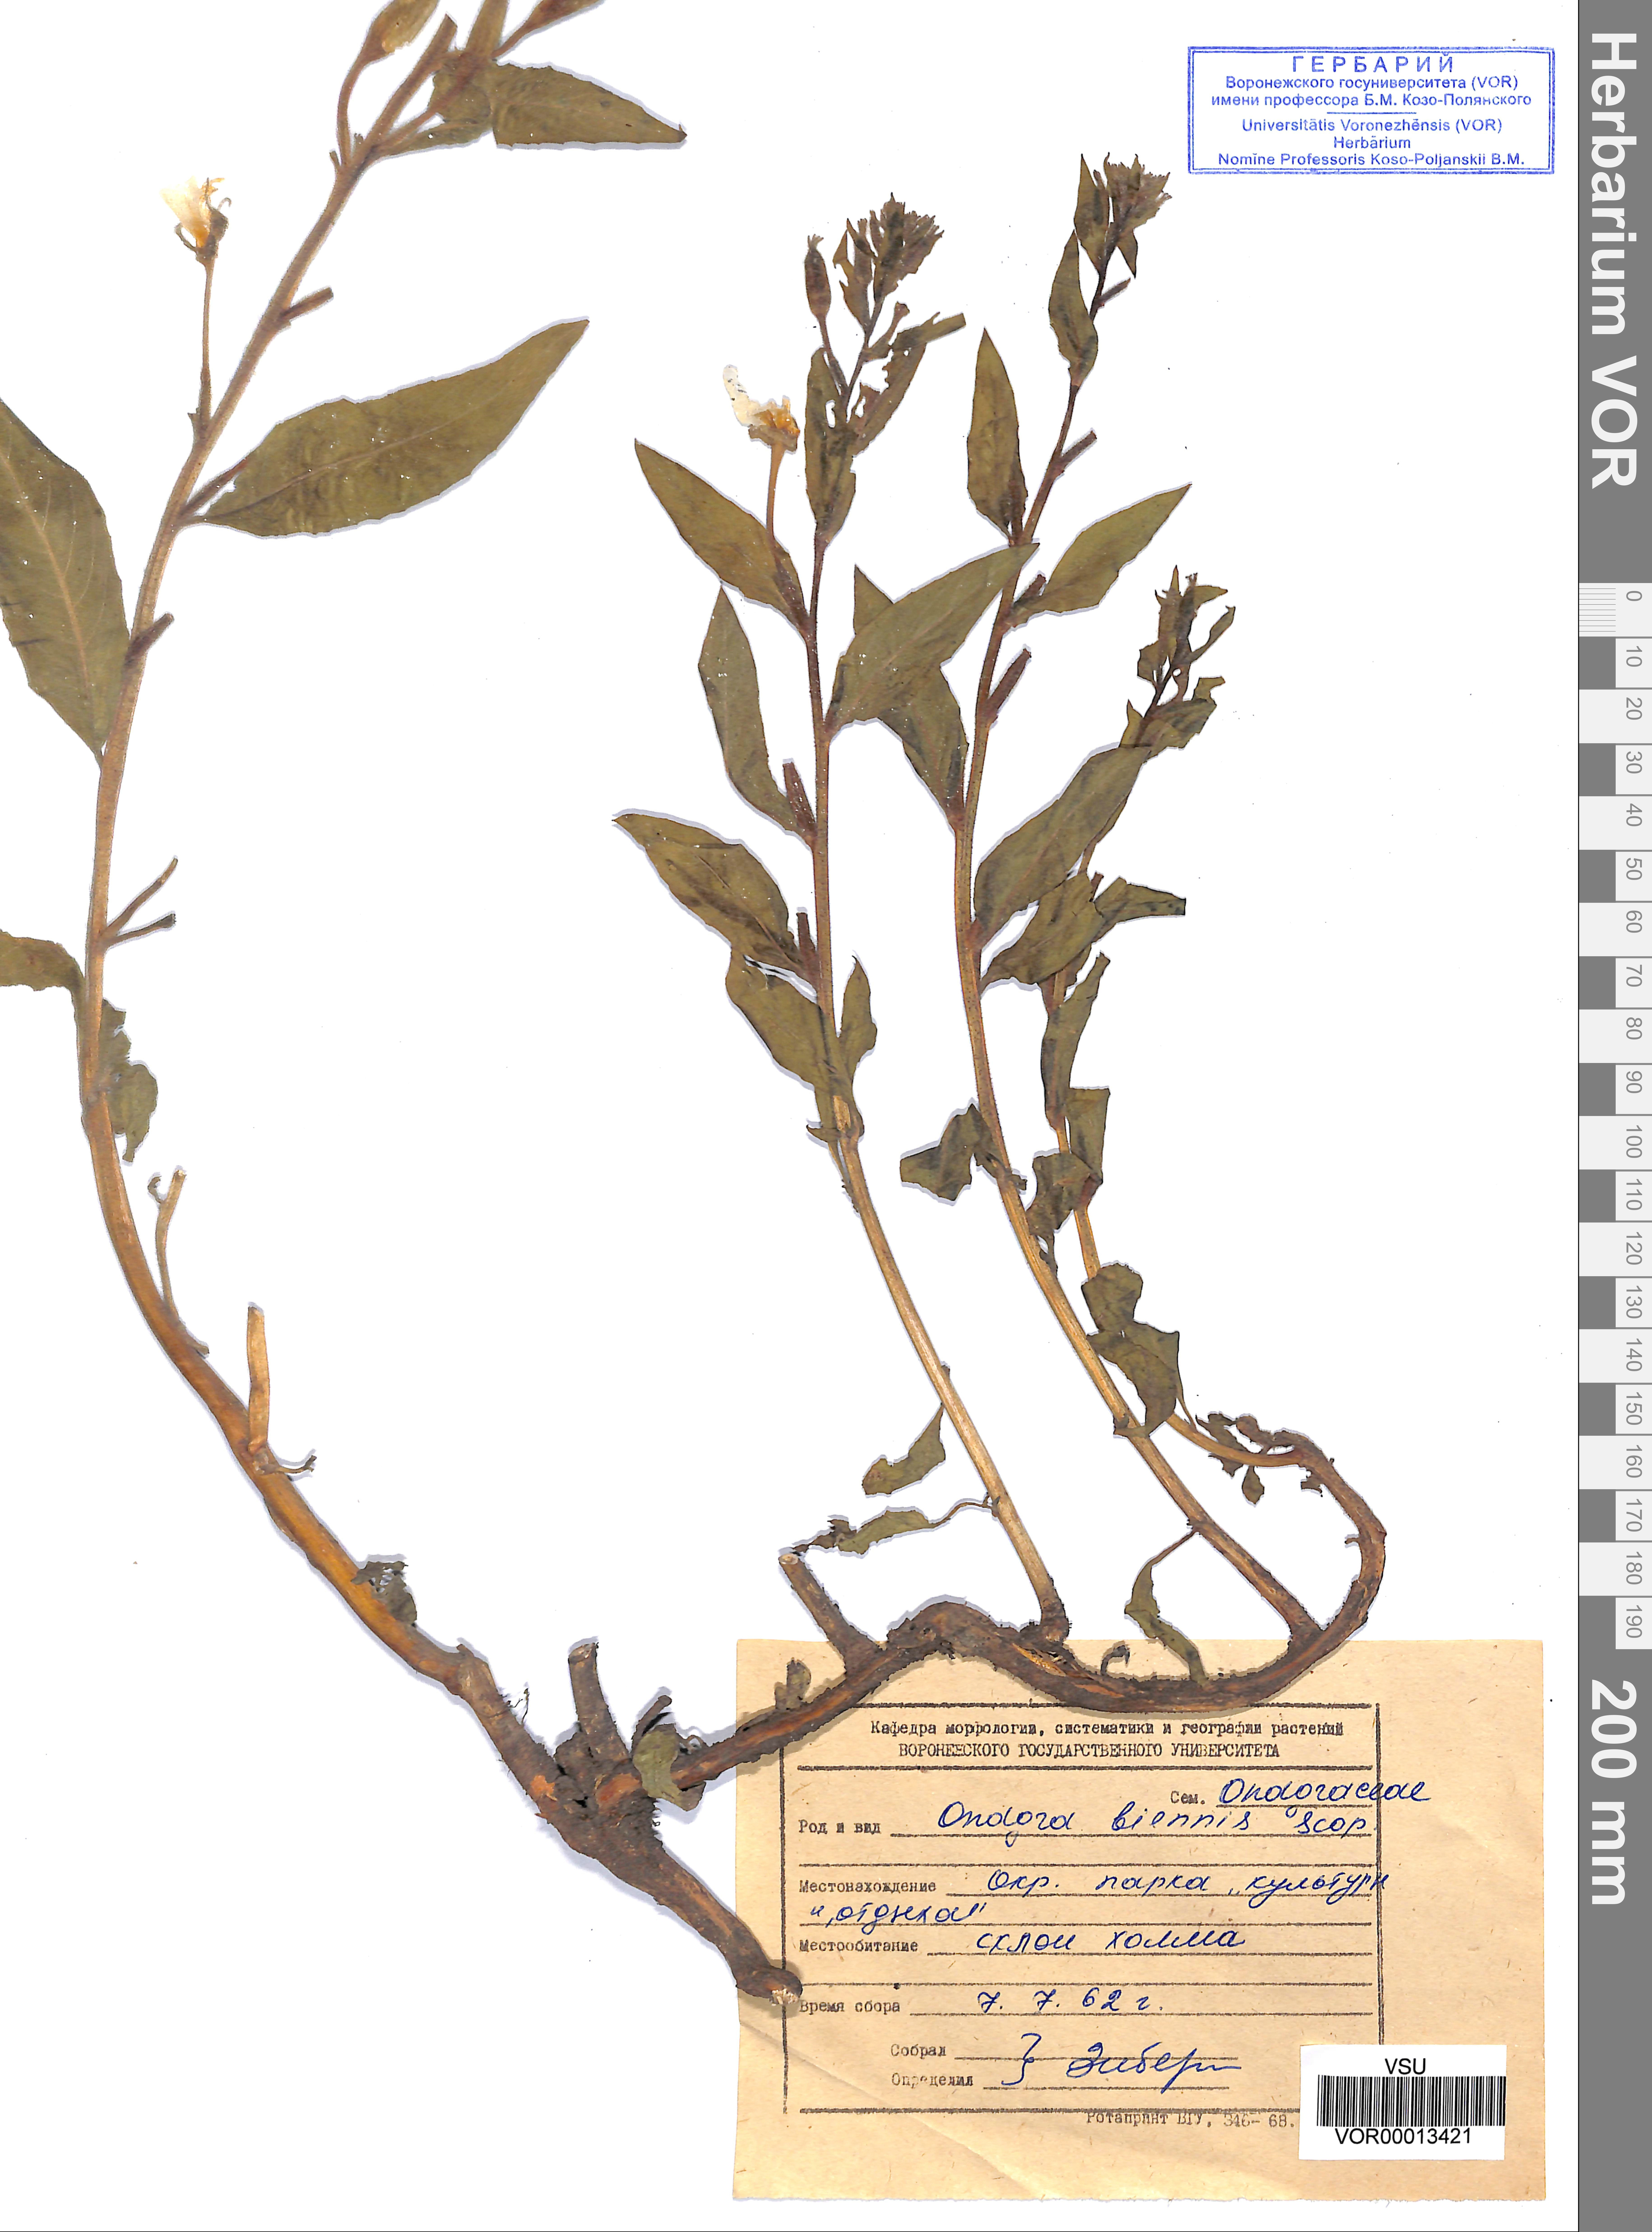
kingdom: Plantae
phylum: Tracheophyta
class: Magnoliopsida
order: Myrtales
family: Onagraceae
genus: Oenothera
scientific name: Oenothera biennis
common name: Common evening-primrose
